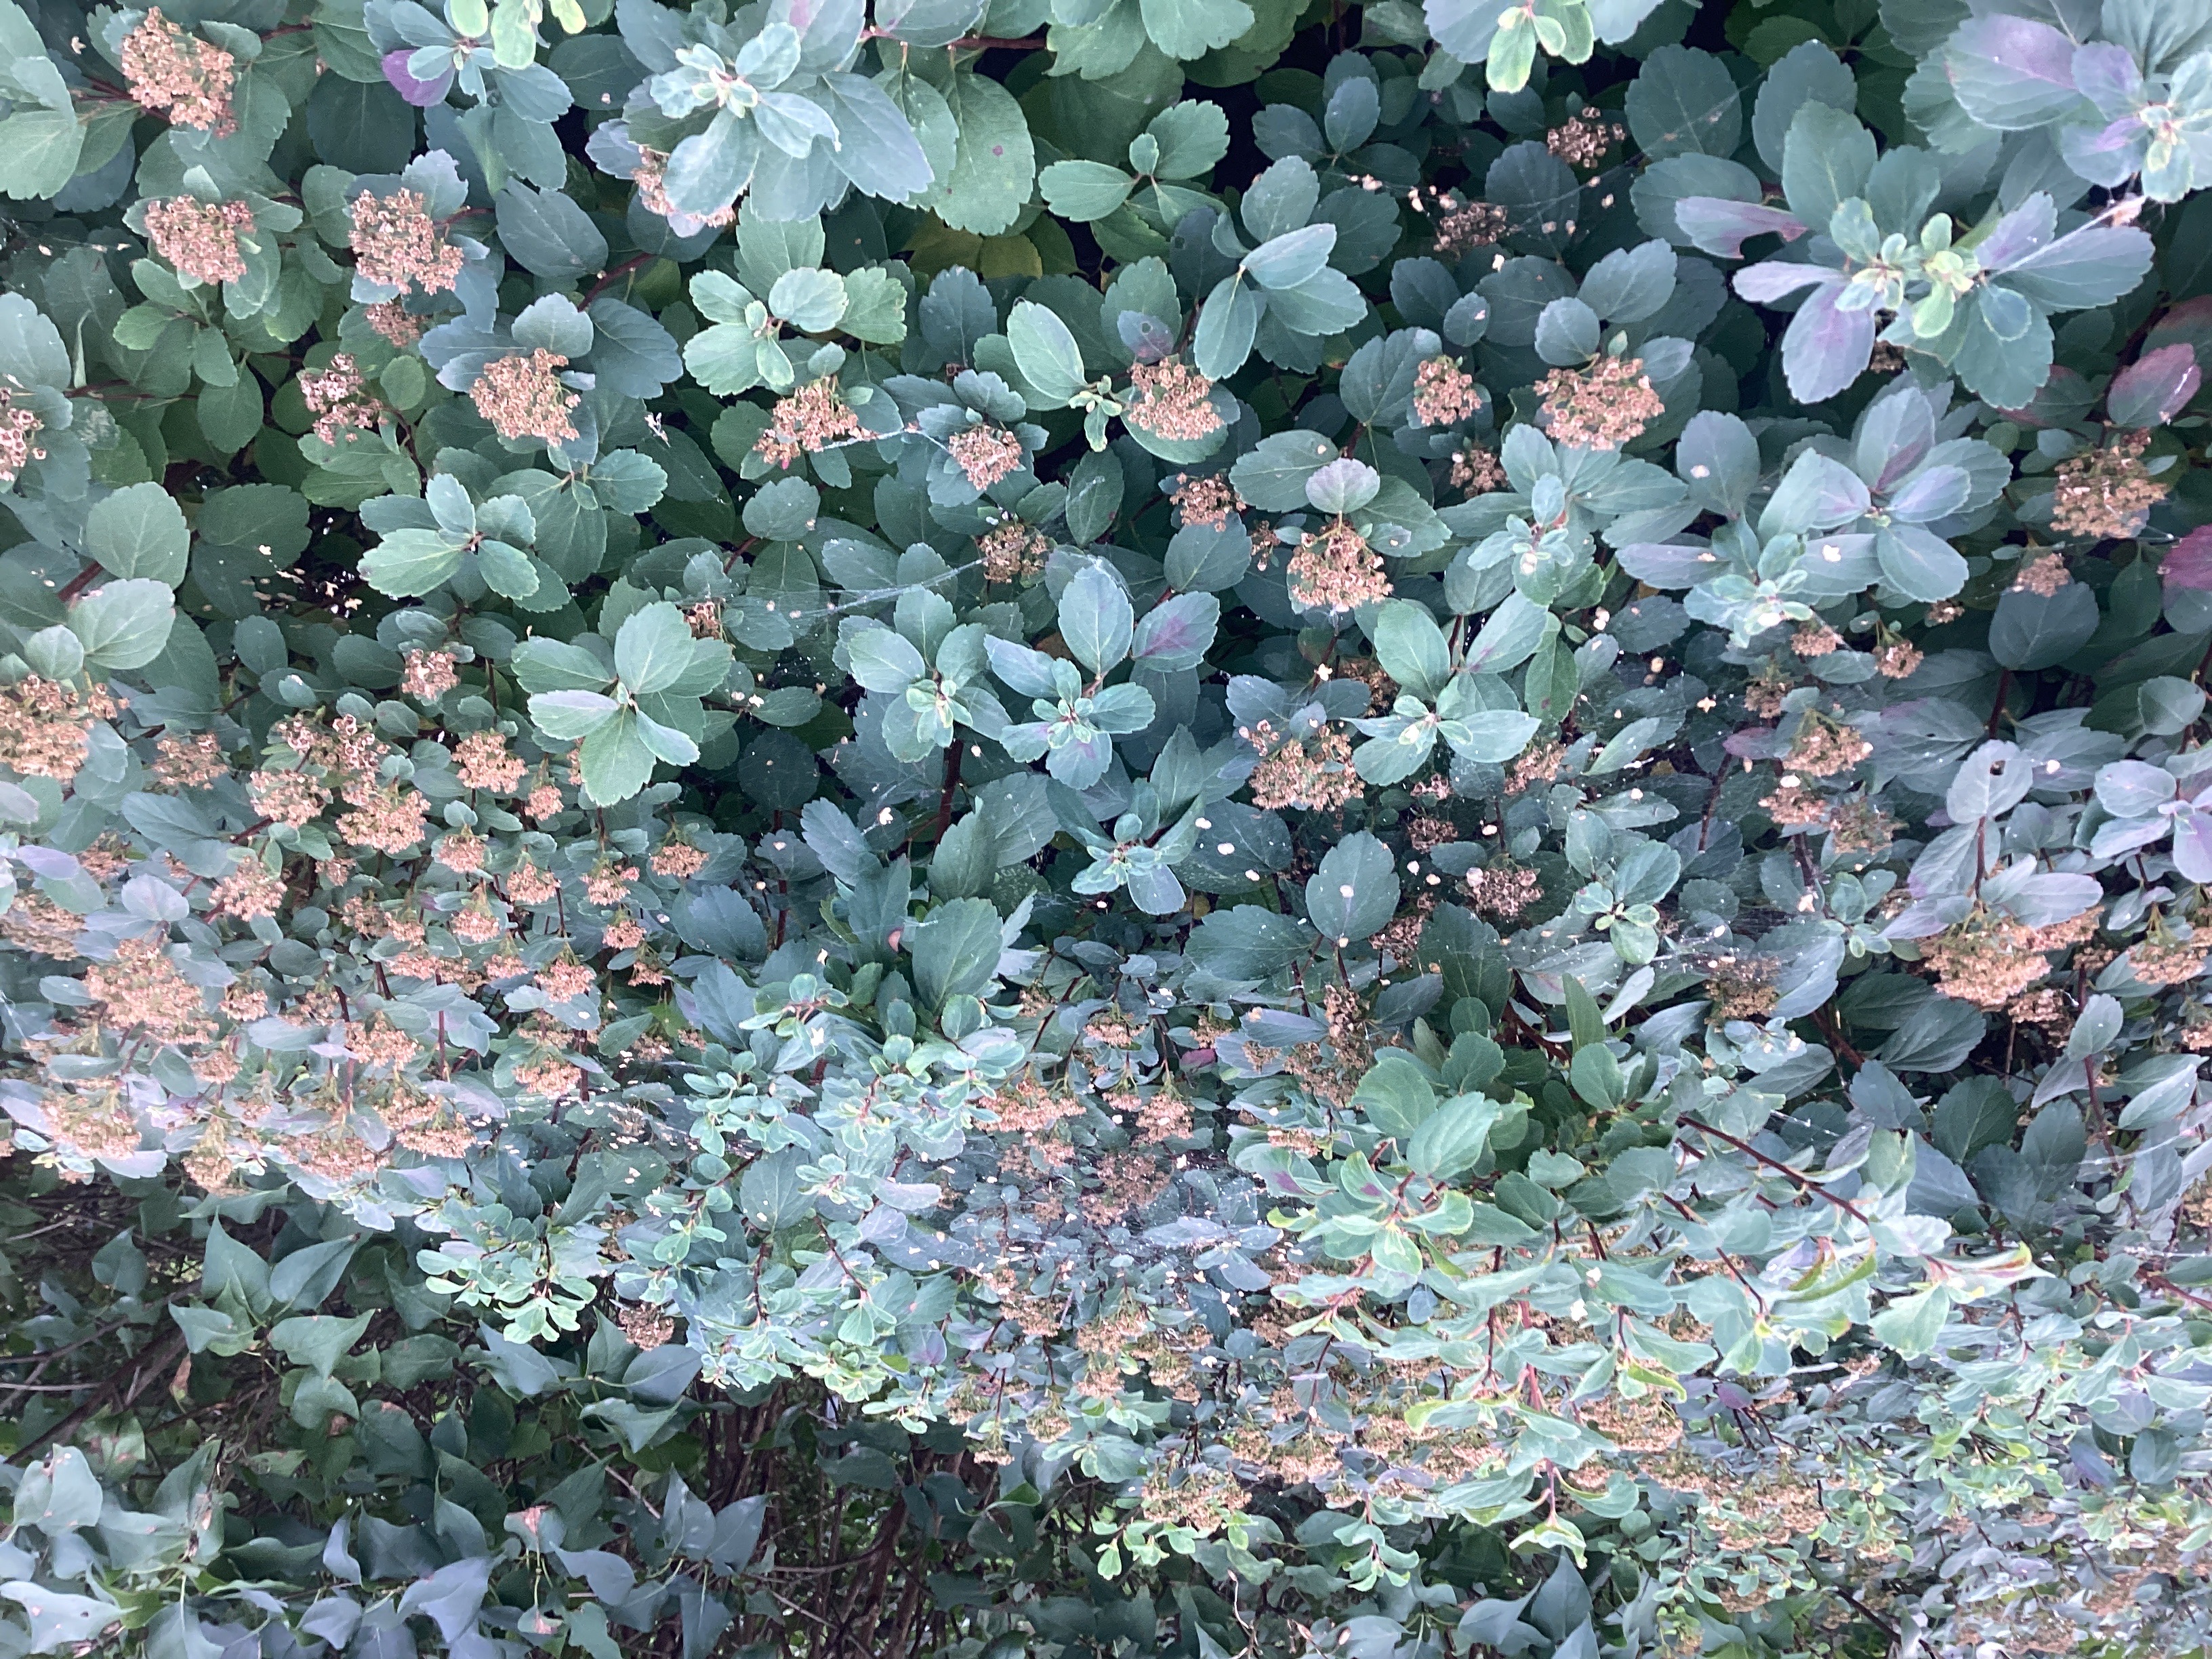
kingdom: Plantae
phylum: Tracheophyta
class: Magnoliopsida
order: Rosales
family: Rosaceae
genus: Spiraea
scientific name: Spiraea betulifolia
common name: bjørkebladspirea
